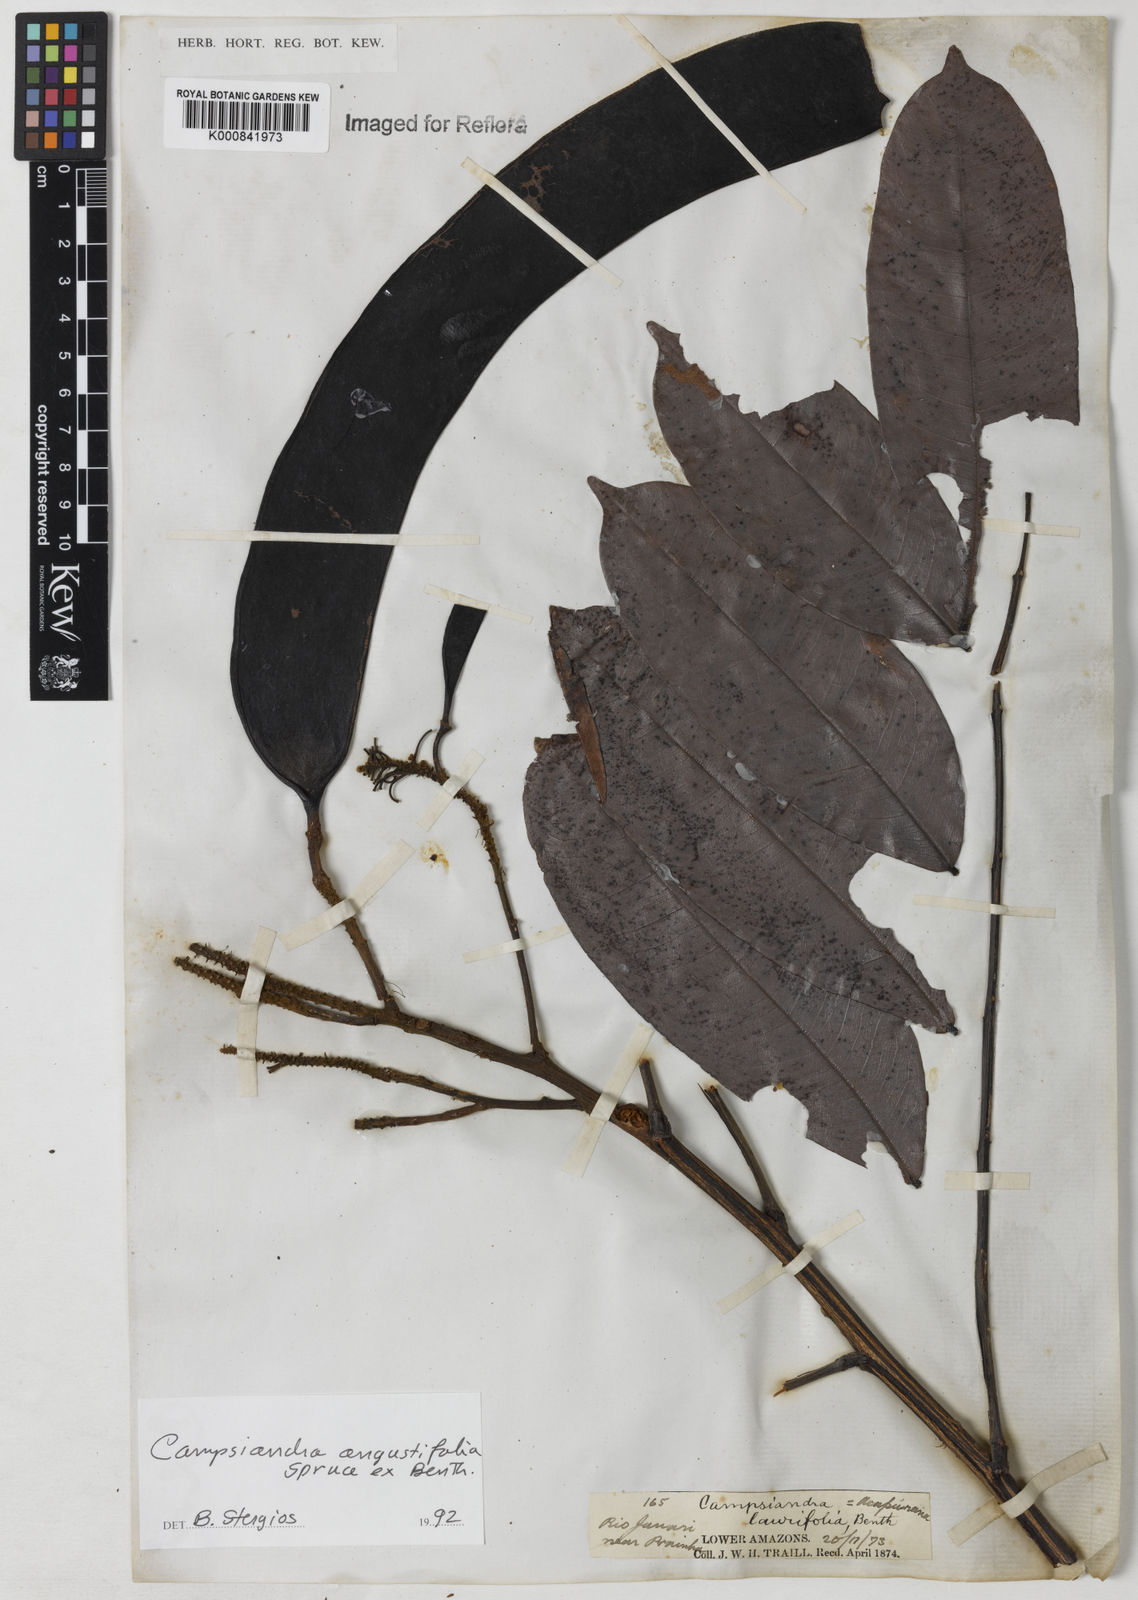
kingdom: Plantae
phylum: Tracheophyta
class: Magnoliopsida
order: Fabales
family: Fabaceae
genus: Campsiandra
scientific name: Campsiandra
